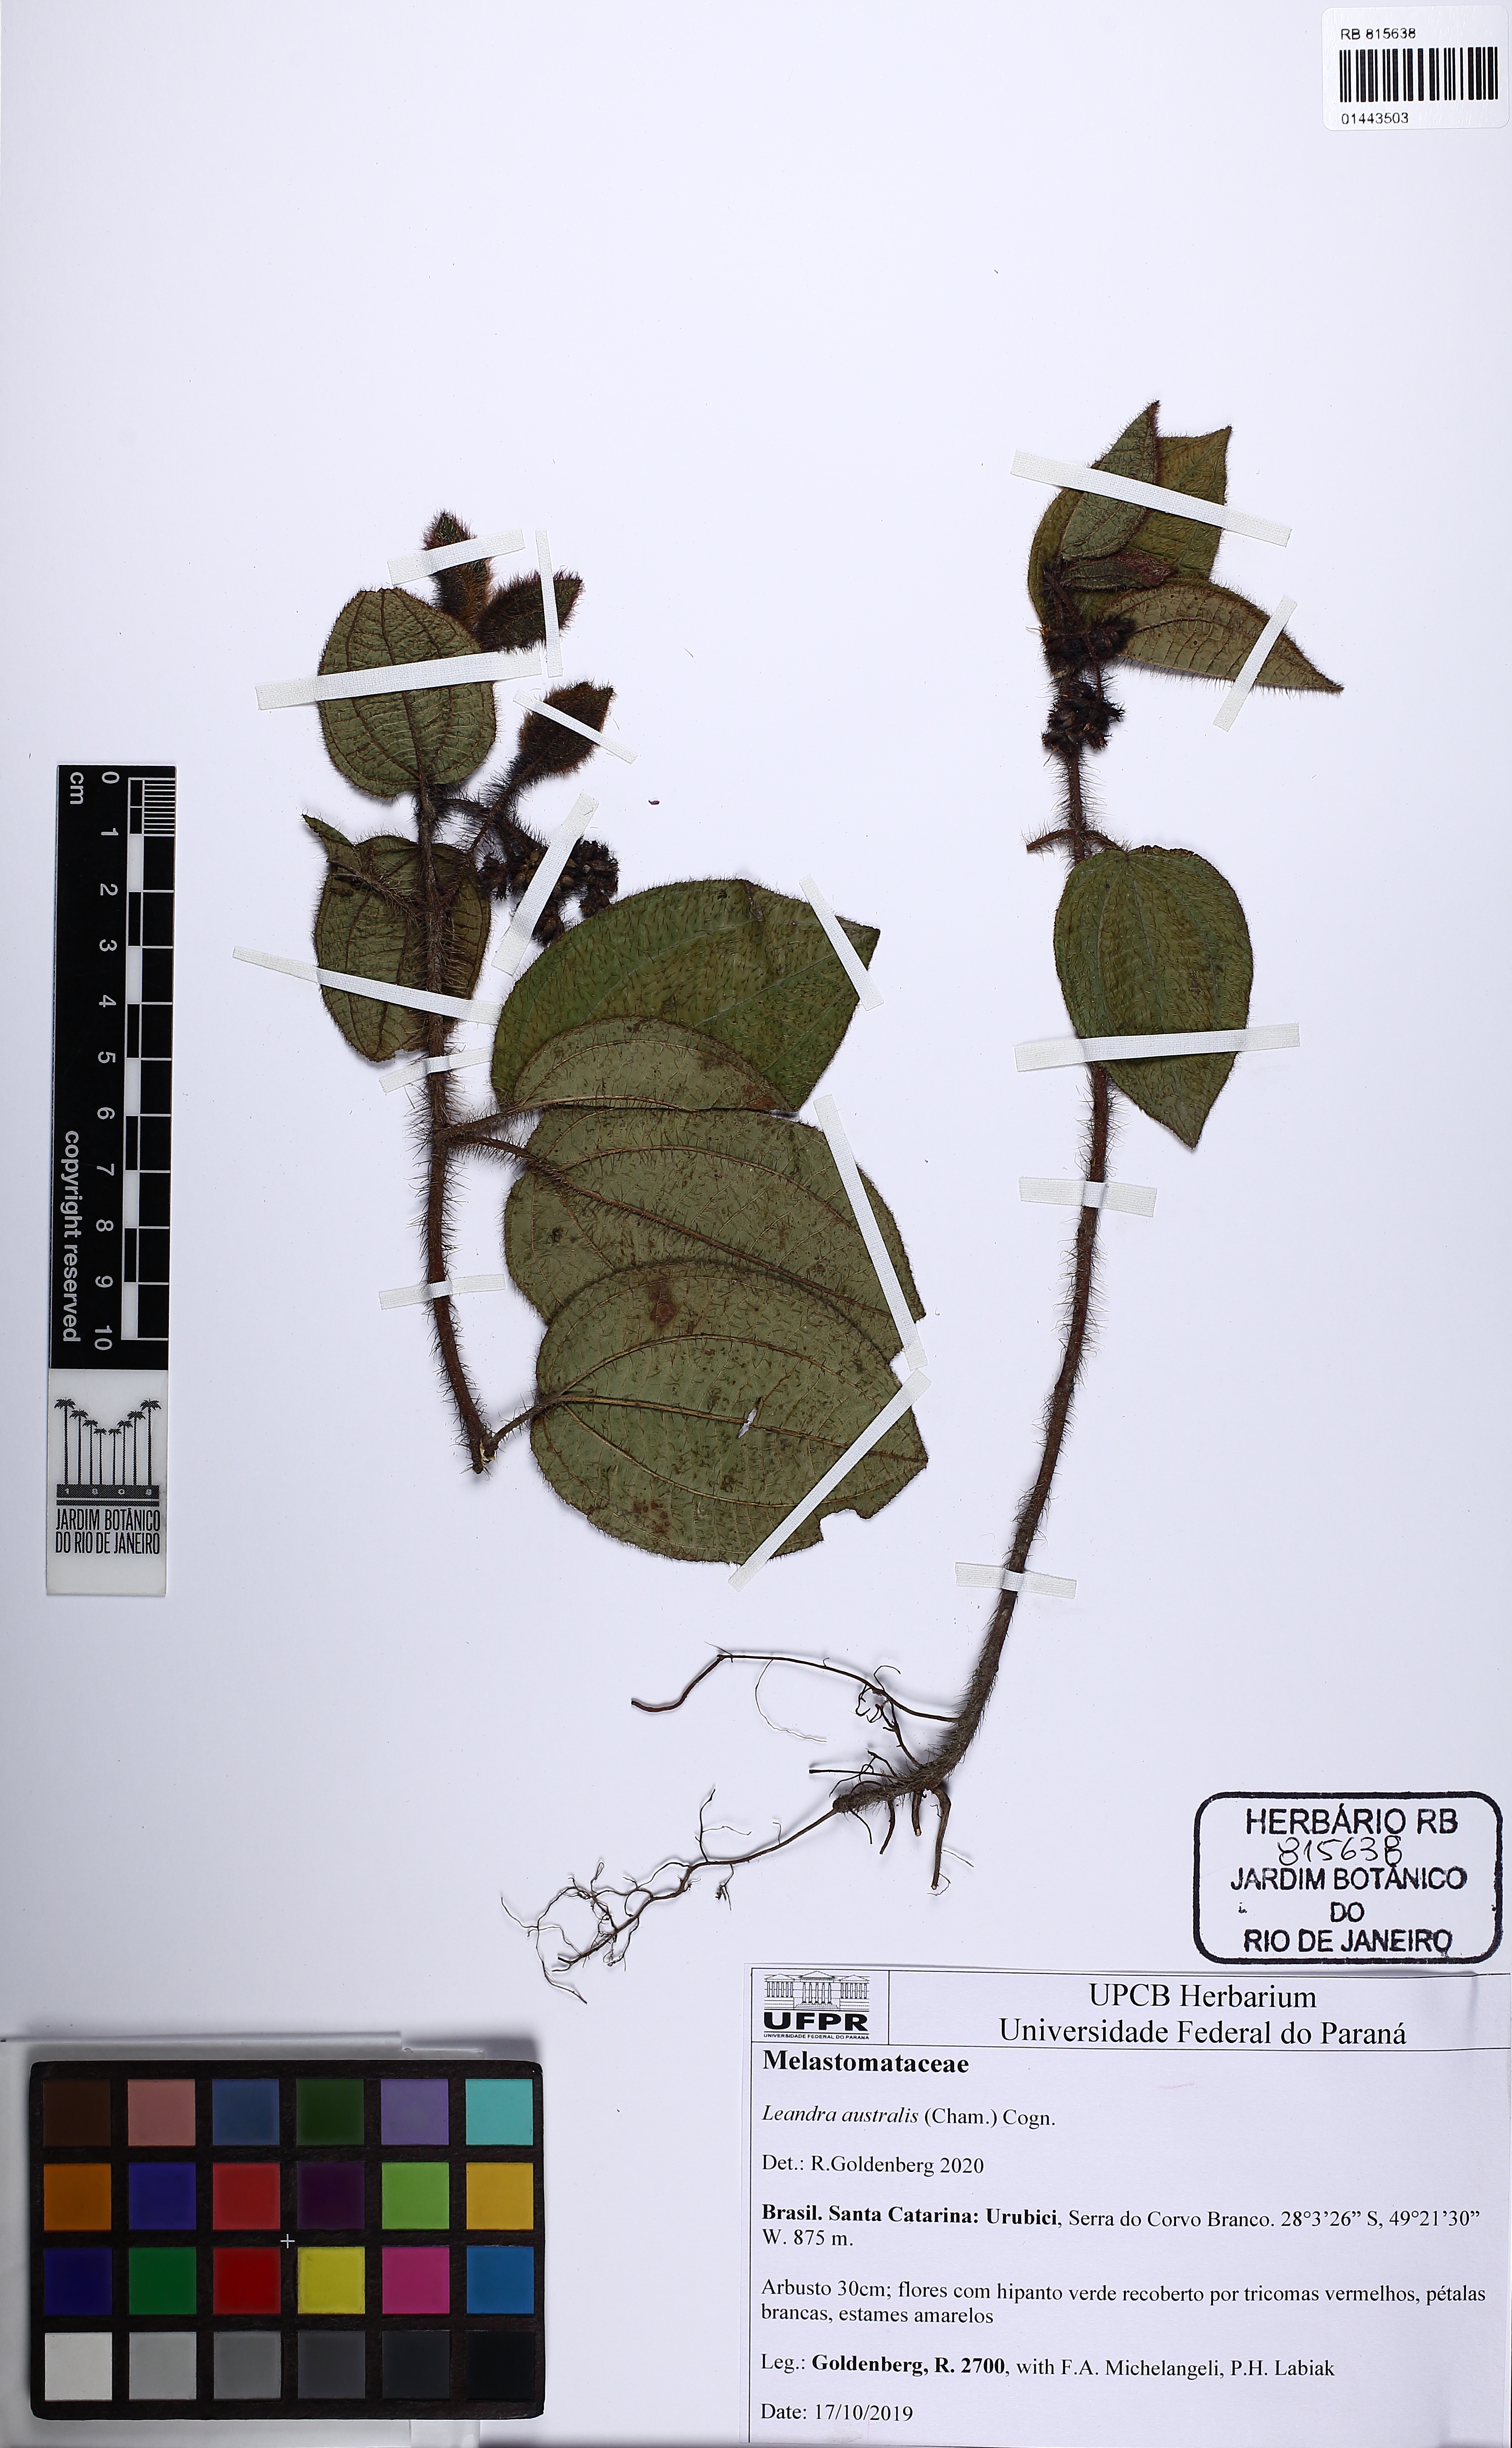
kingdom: Plantae
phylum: Tracheophyta
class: Magnoliopsida
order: Myrtales
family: Melastomataceae
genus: Miconia
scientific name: Miconia australis
